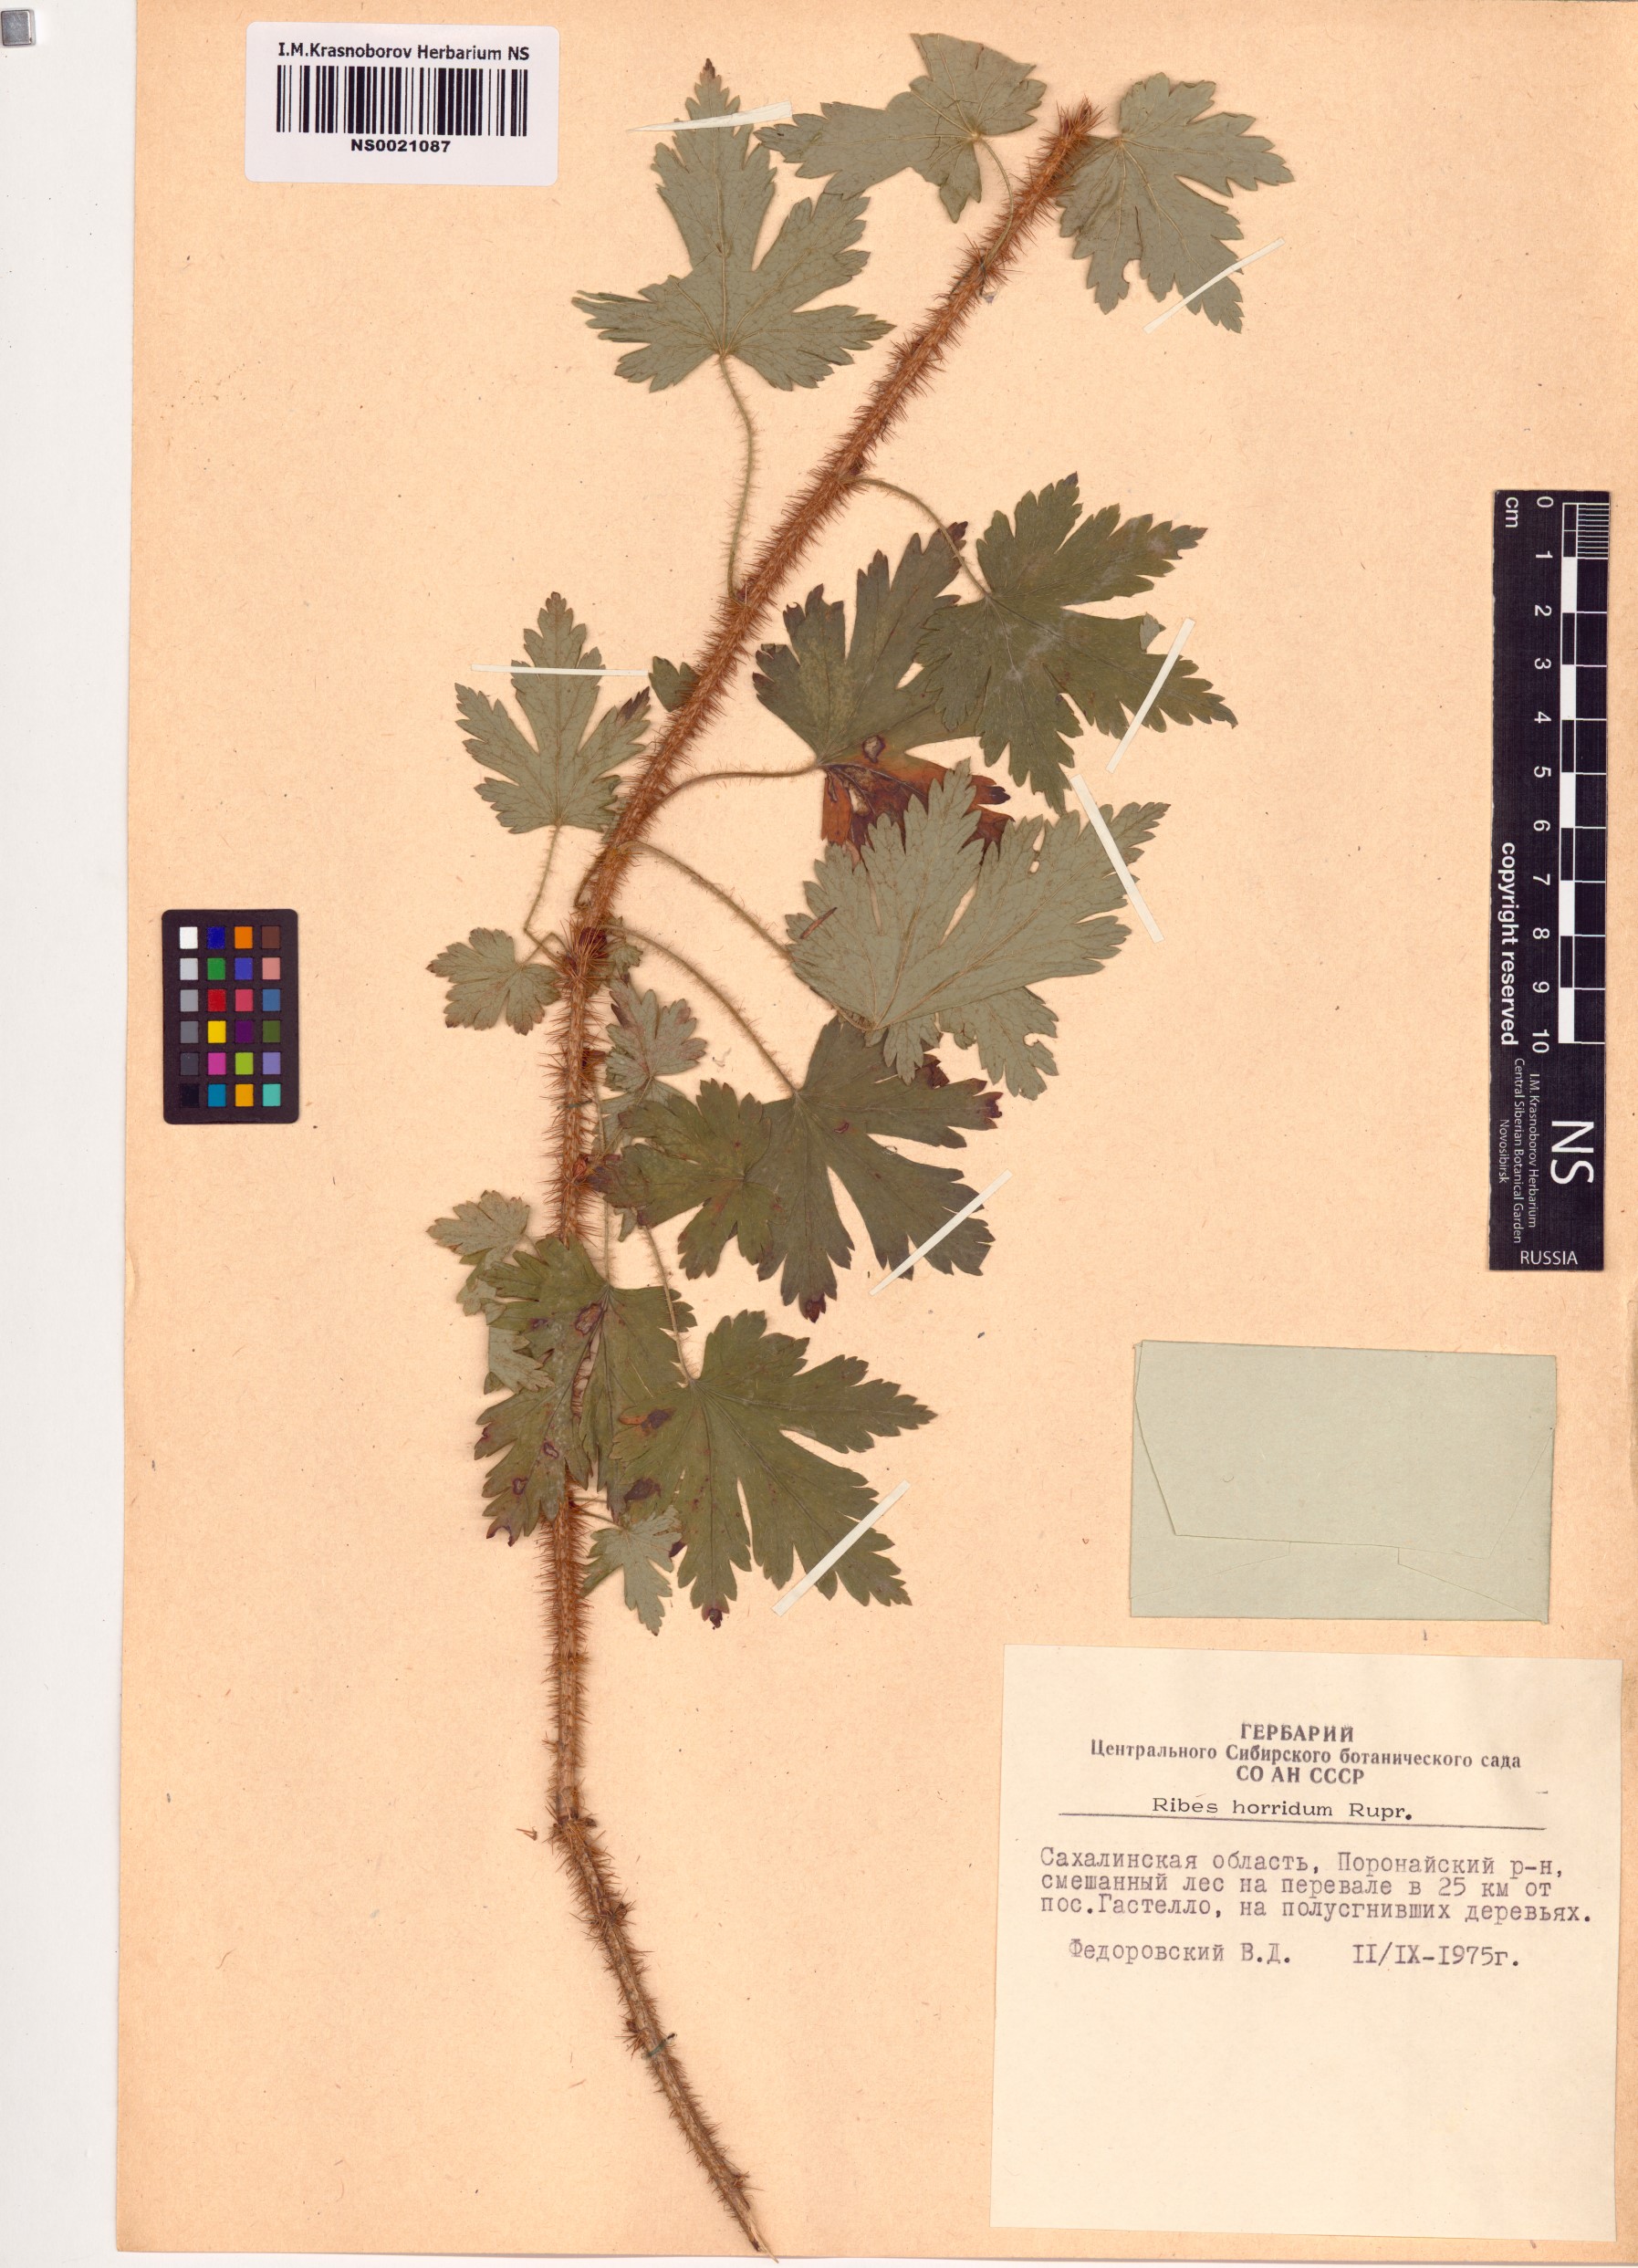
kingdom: Plantae
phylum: Tracheophyta
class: Magnoliopsida
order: Saxifragales
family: Grossulariaceae
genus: Ribes
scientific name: Ribes horridum
